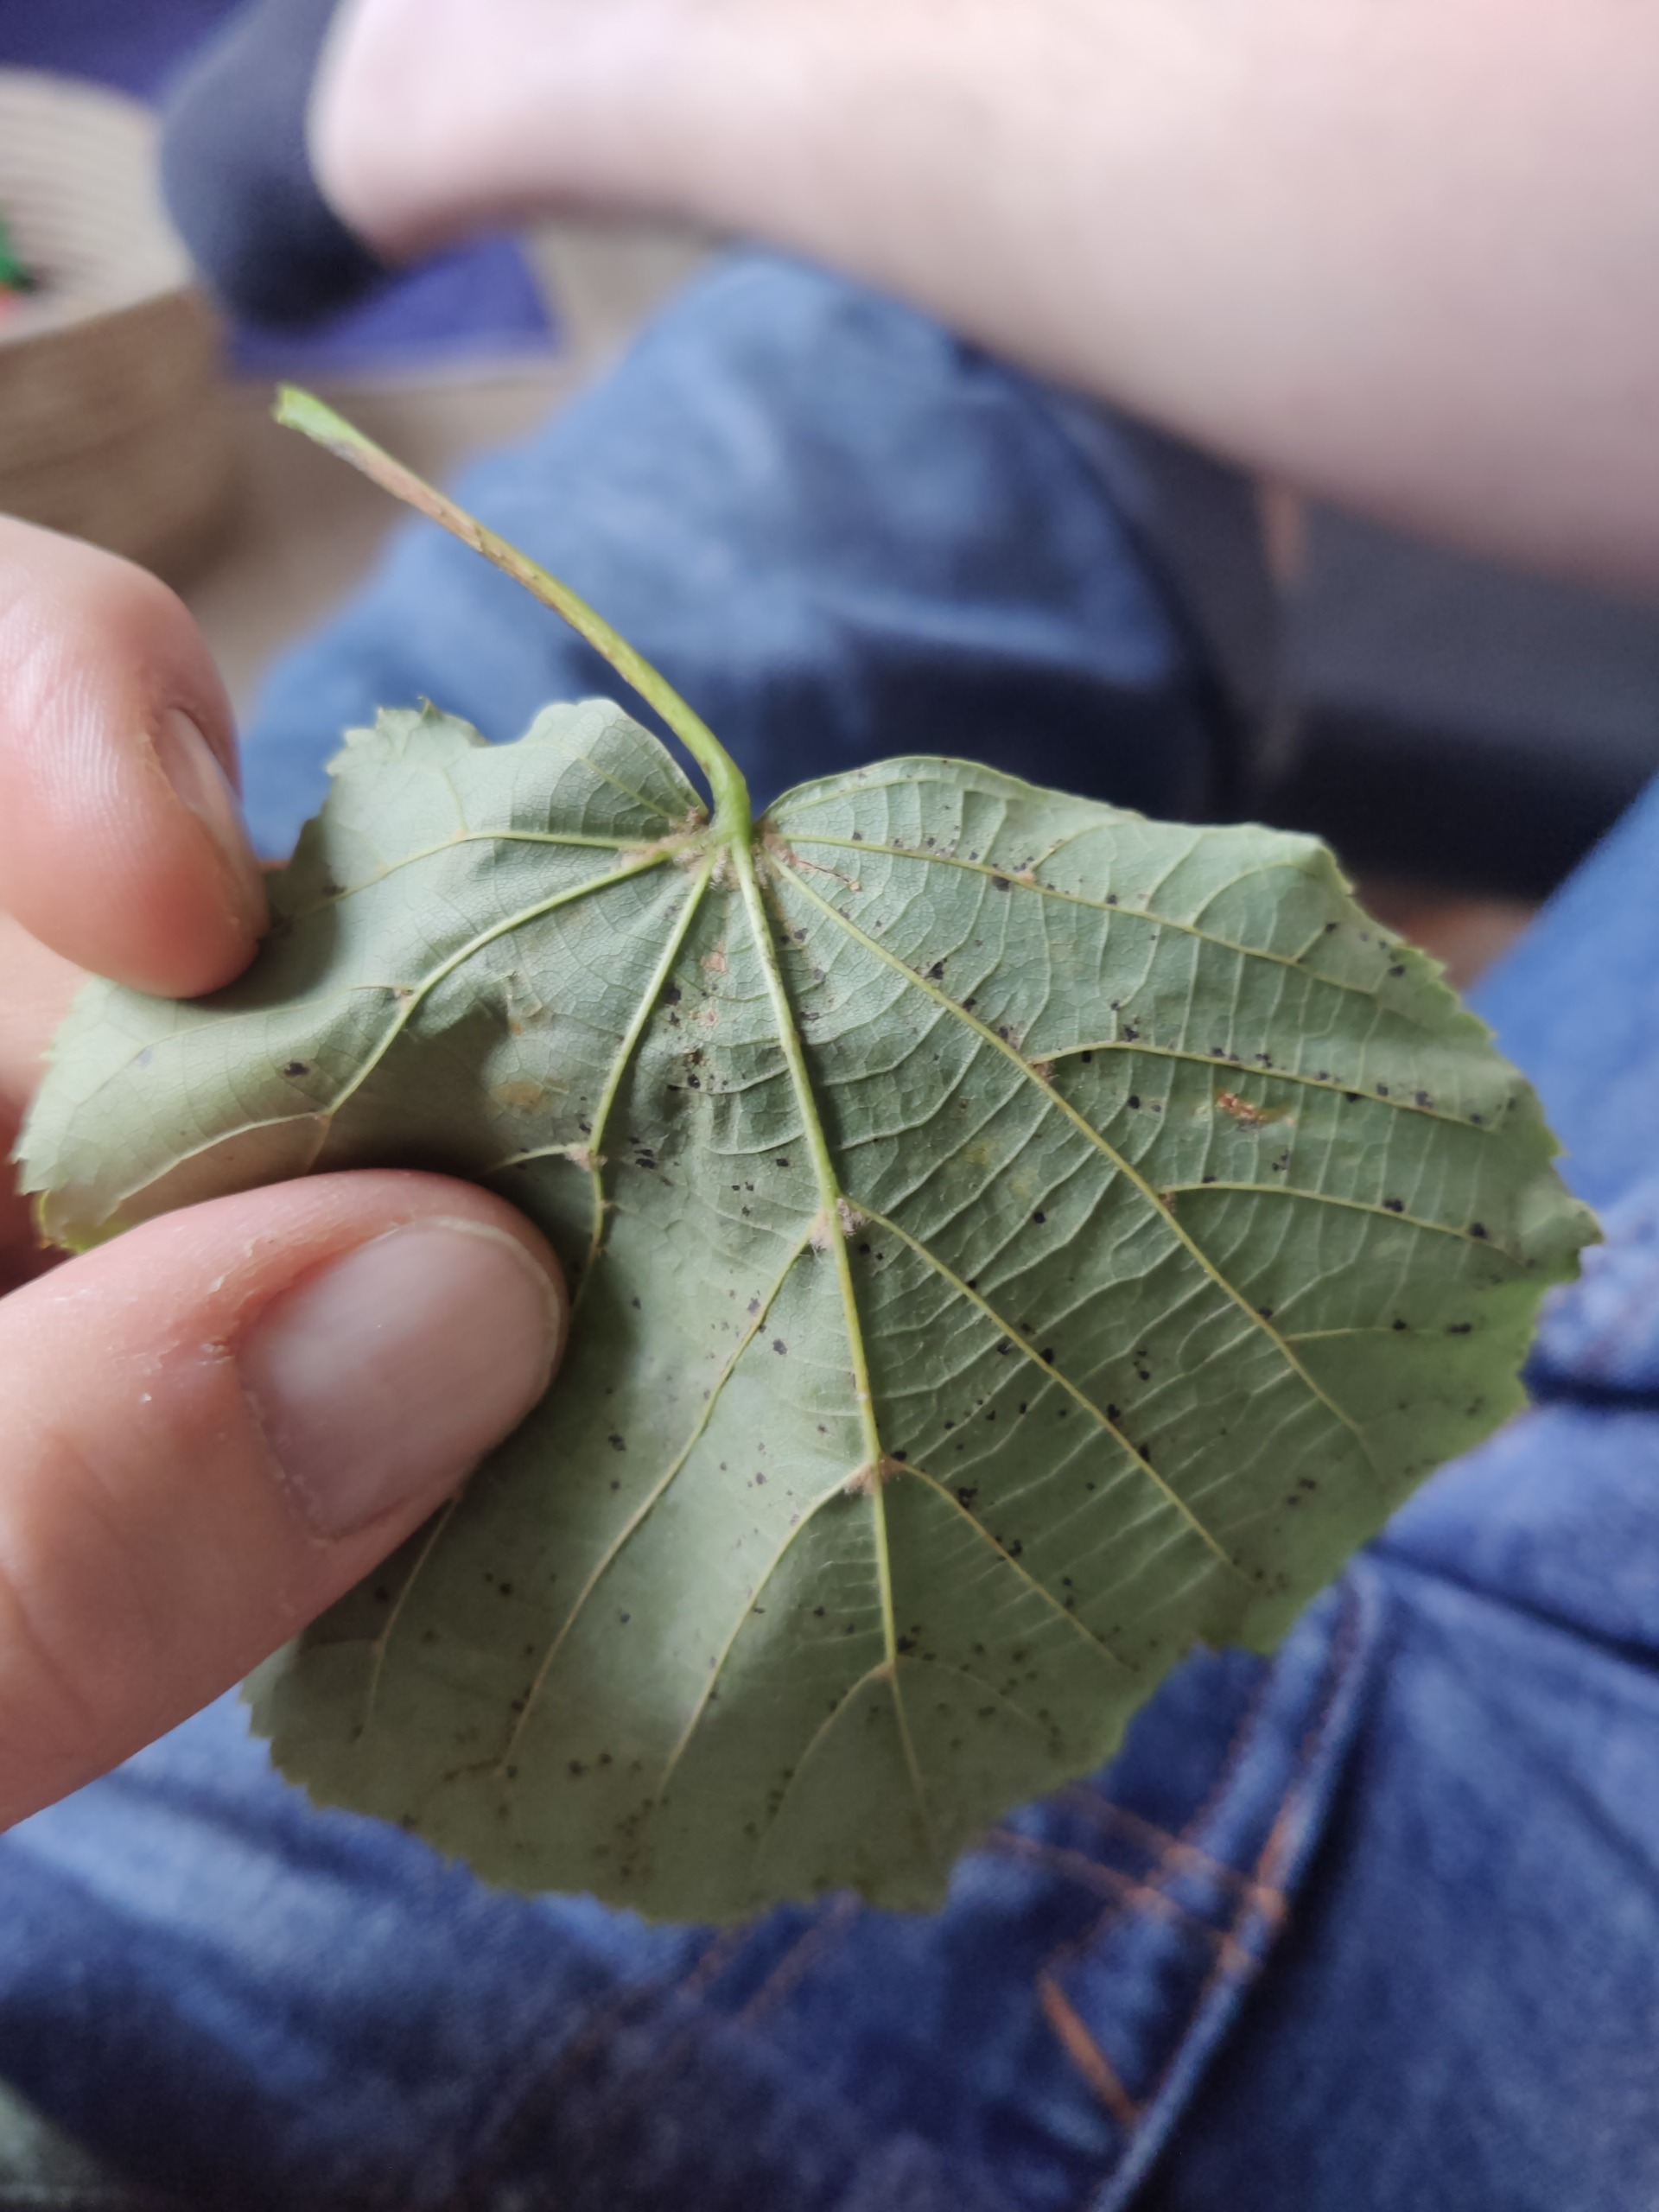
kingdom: Plantae
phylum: Tracheophyta
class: Magnoliopsida
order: Malvales
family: Malvaceae
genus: Tilia
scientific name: Tilia cordata
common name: Småbladet lind
